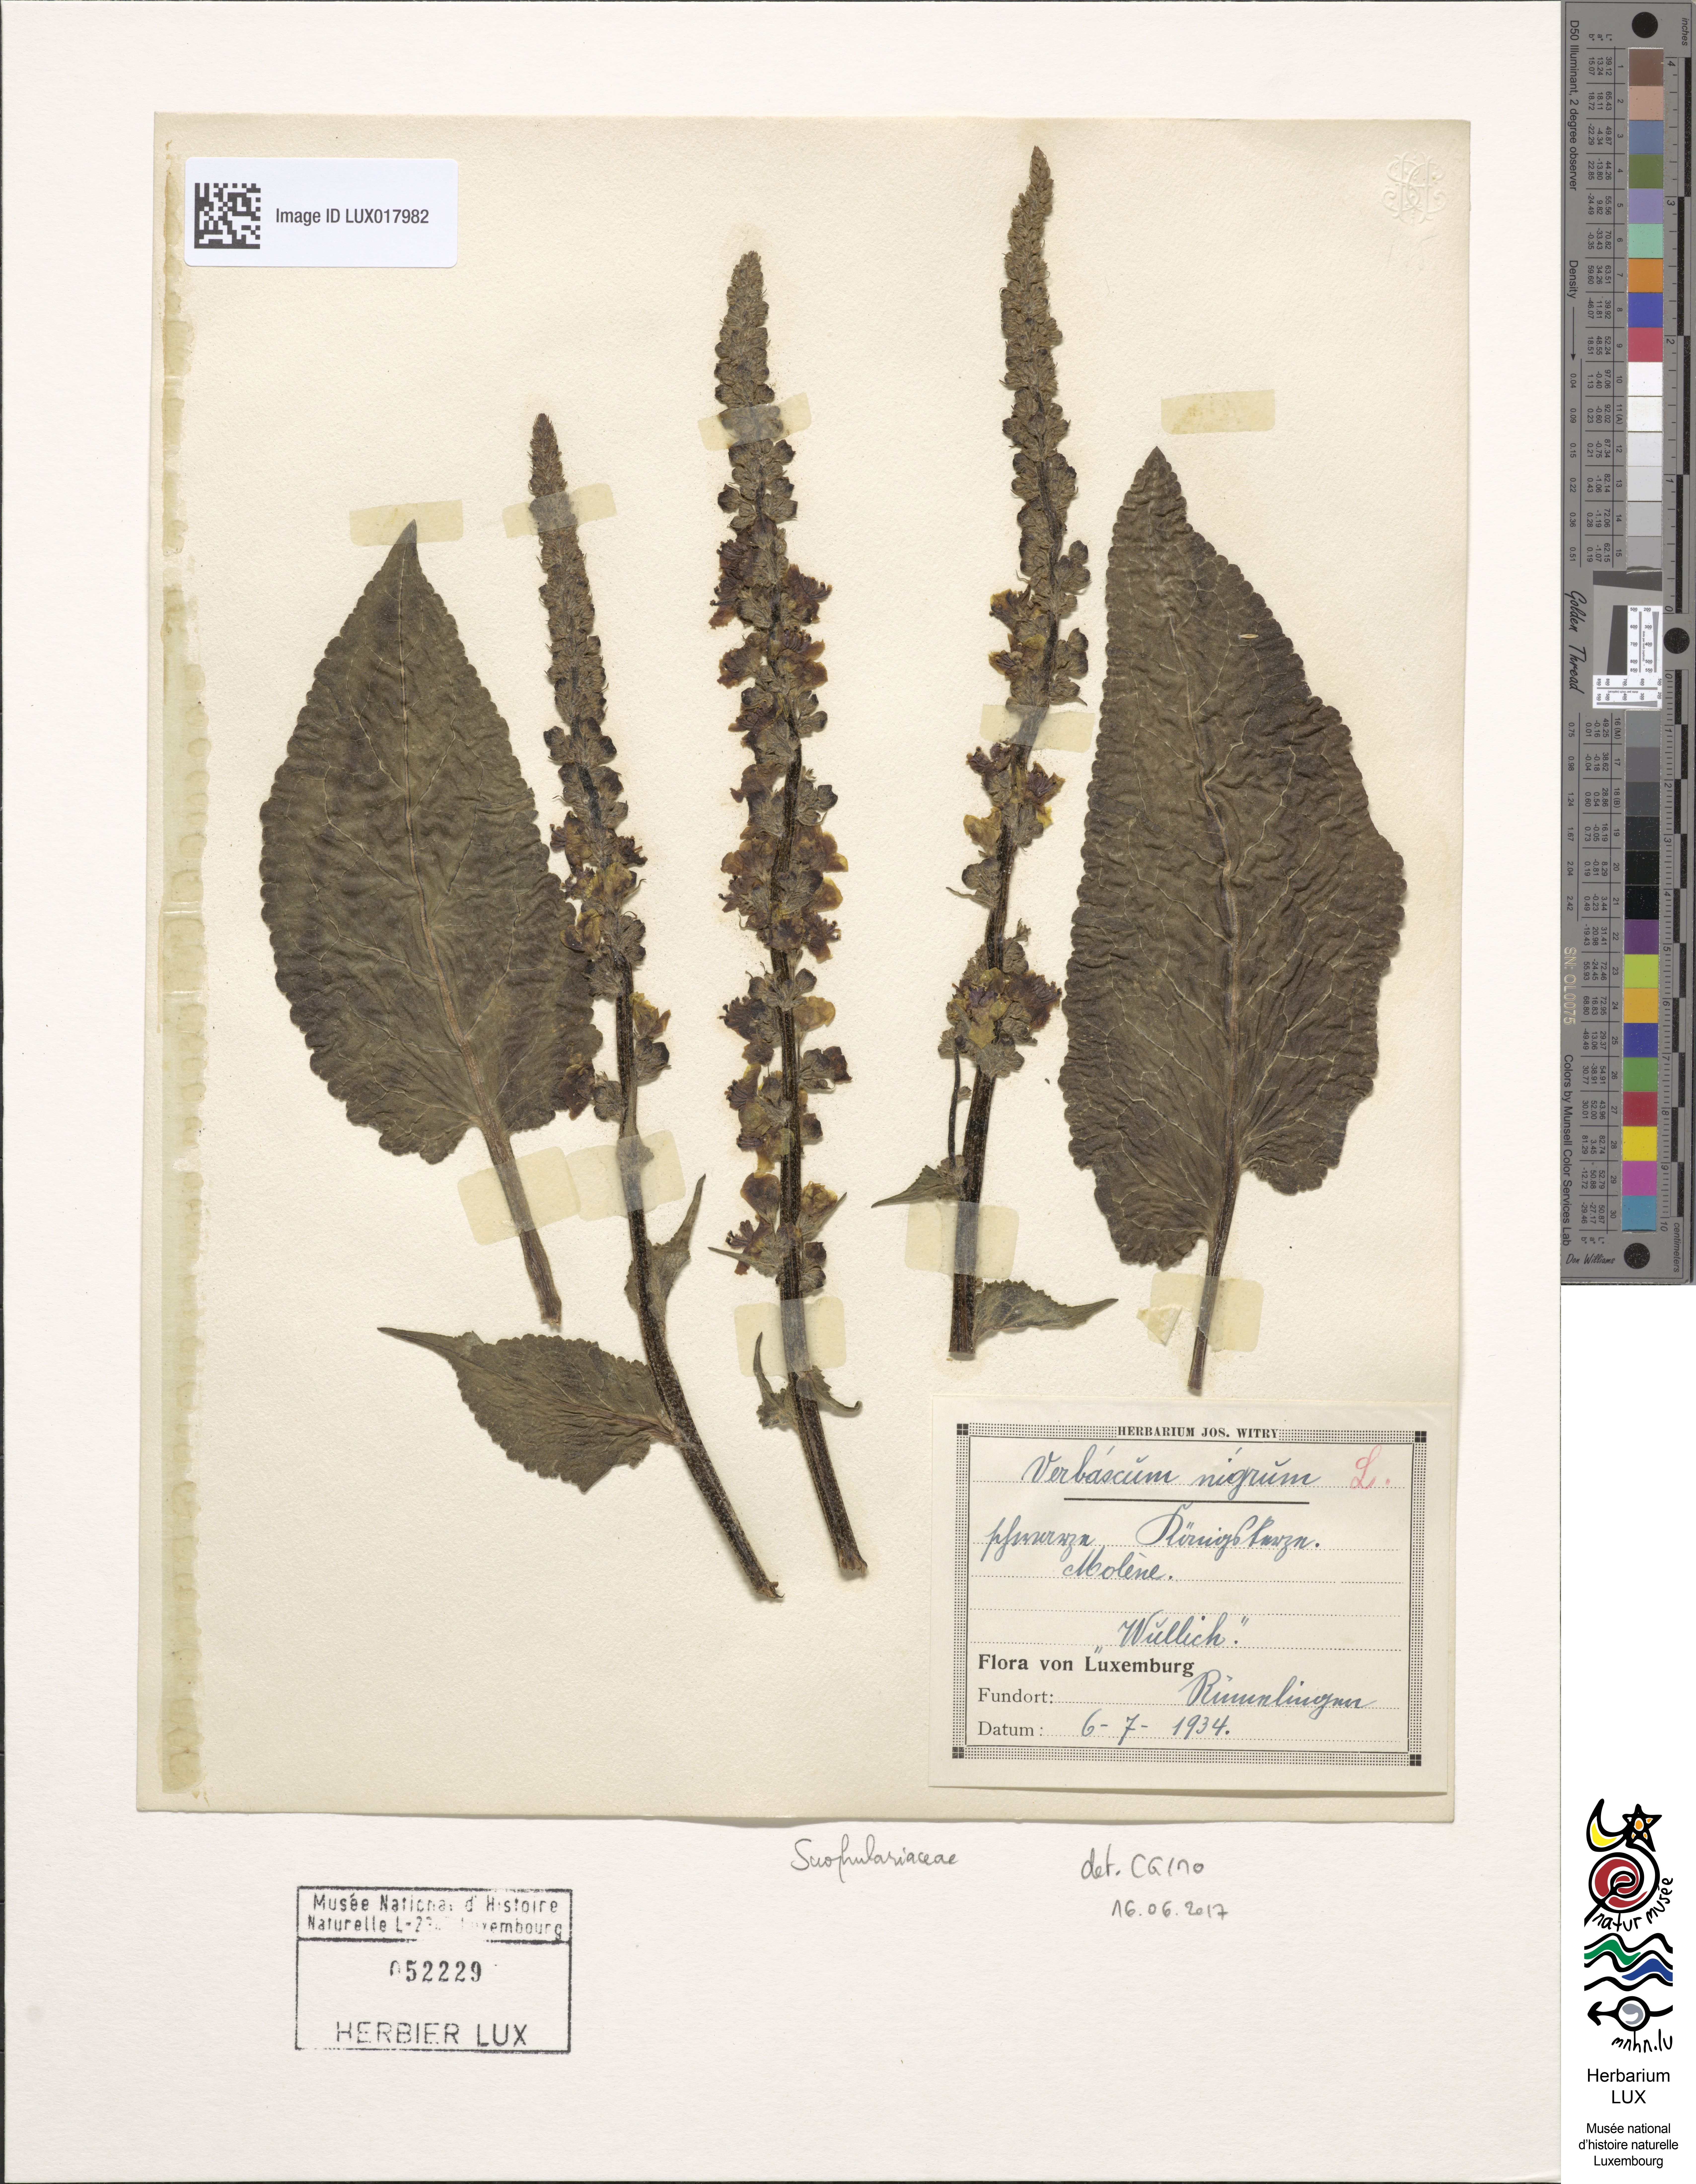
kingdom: Plantae
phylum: Tracheophyta
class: Magnoliopsida
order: Lamiales
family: Scrophulariaceae
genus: Verbascum
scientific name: Verbascum nigrum
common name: Dark mullein
